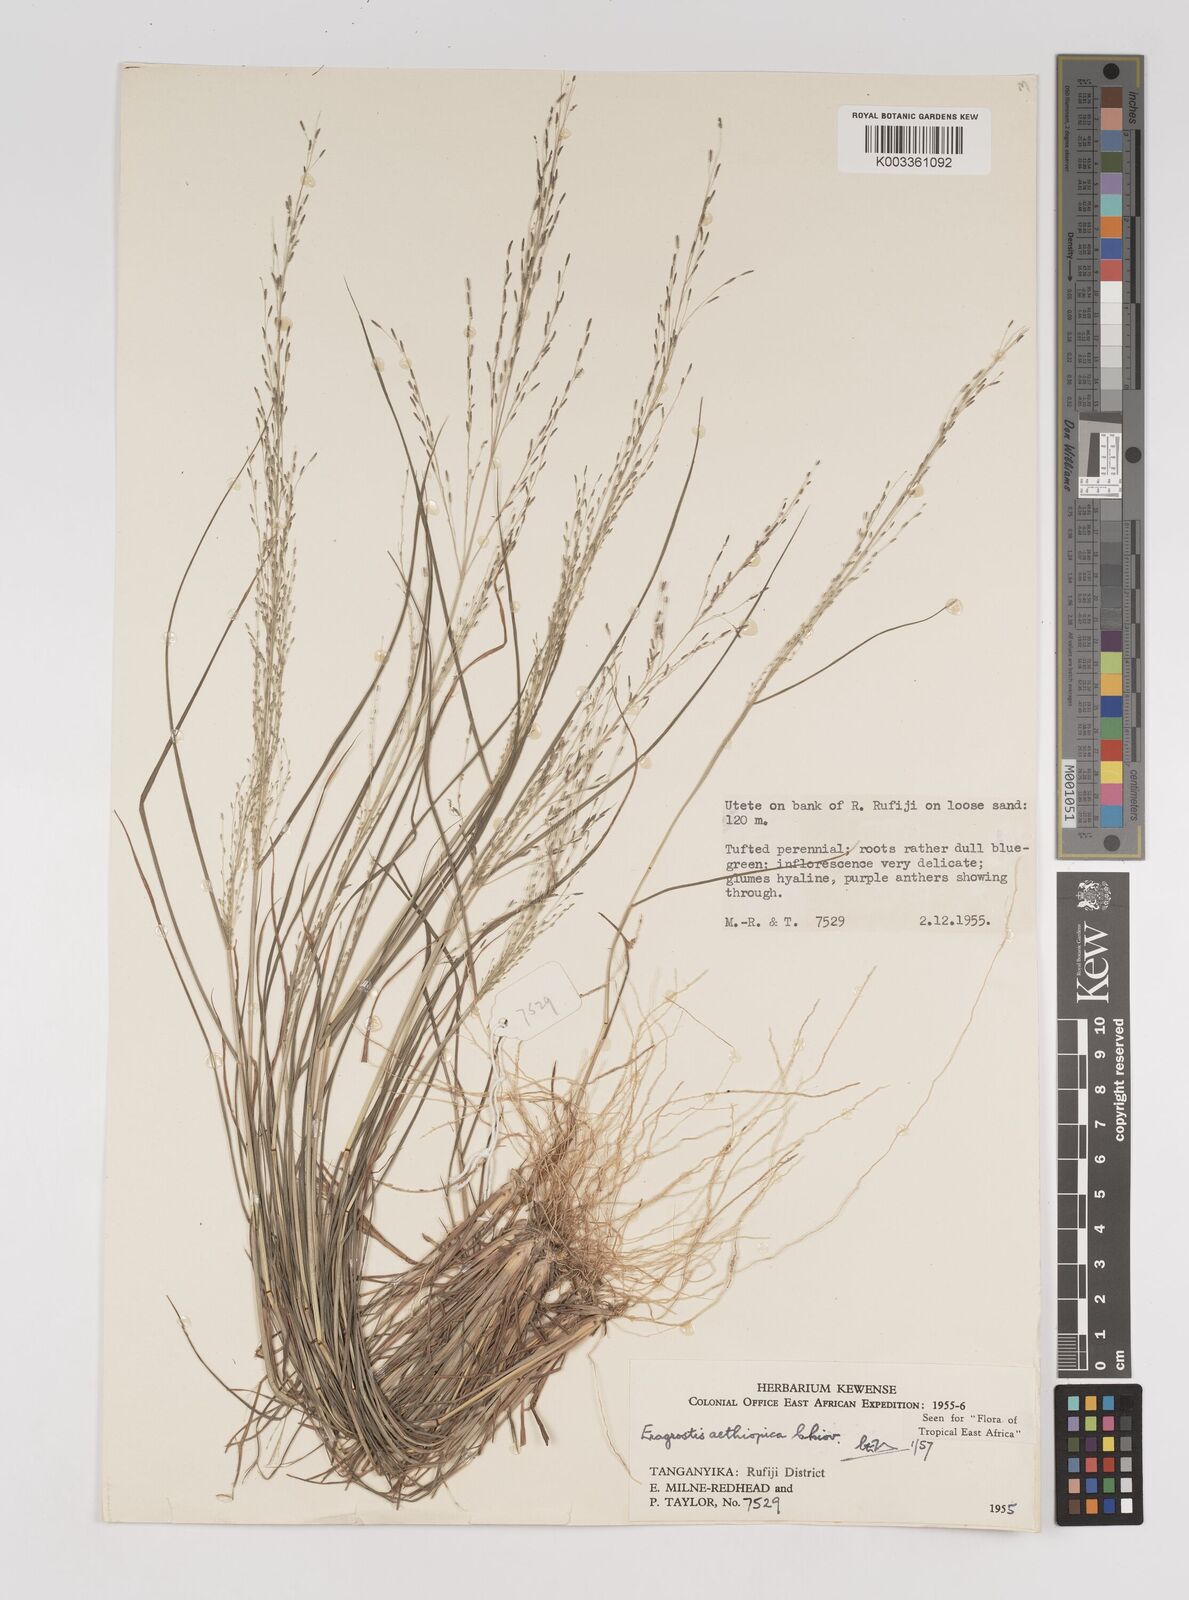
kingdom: Plantae
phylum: Tracheophyta
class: Liliopsida
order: Poales
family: Poaceae
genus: Eragrostis
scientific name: Eragrostis aethiopica
